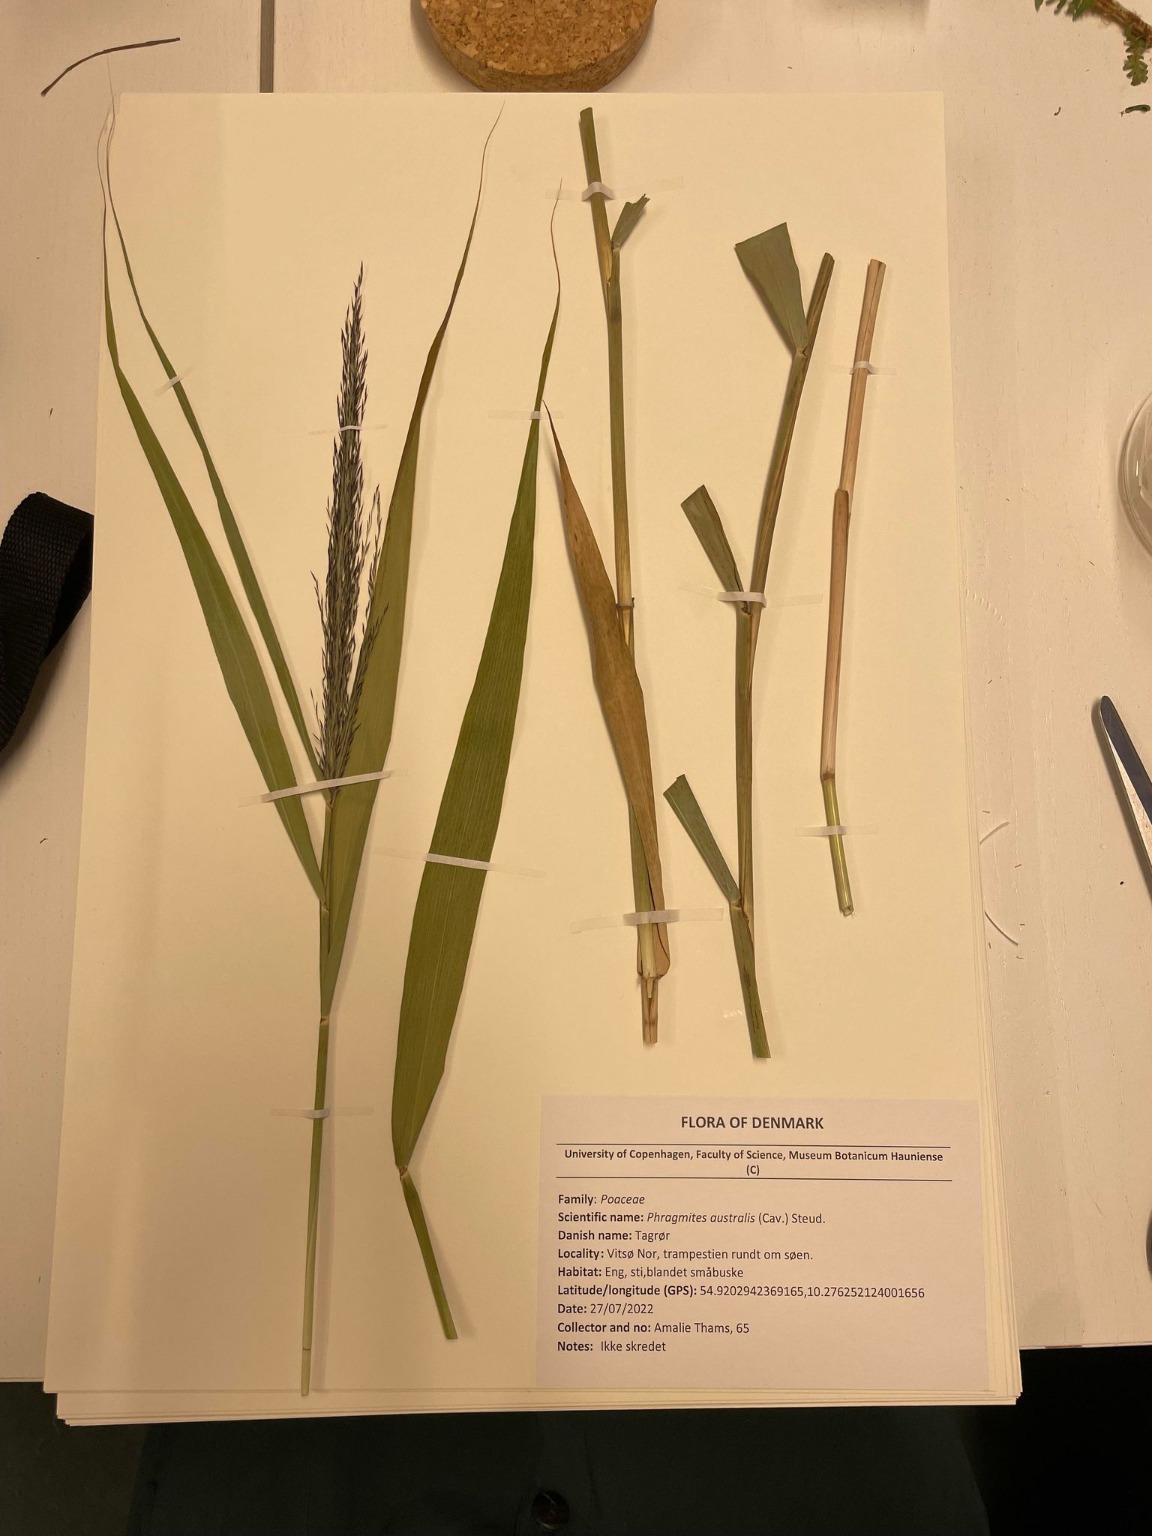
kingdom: Plantae
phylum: Tracheophyta
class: Liliopsida
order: Poales
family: Poaceae
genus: Phragmites
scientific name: Phragmites australis
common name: Tagrør
